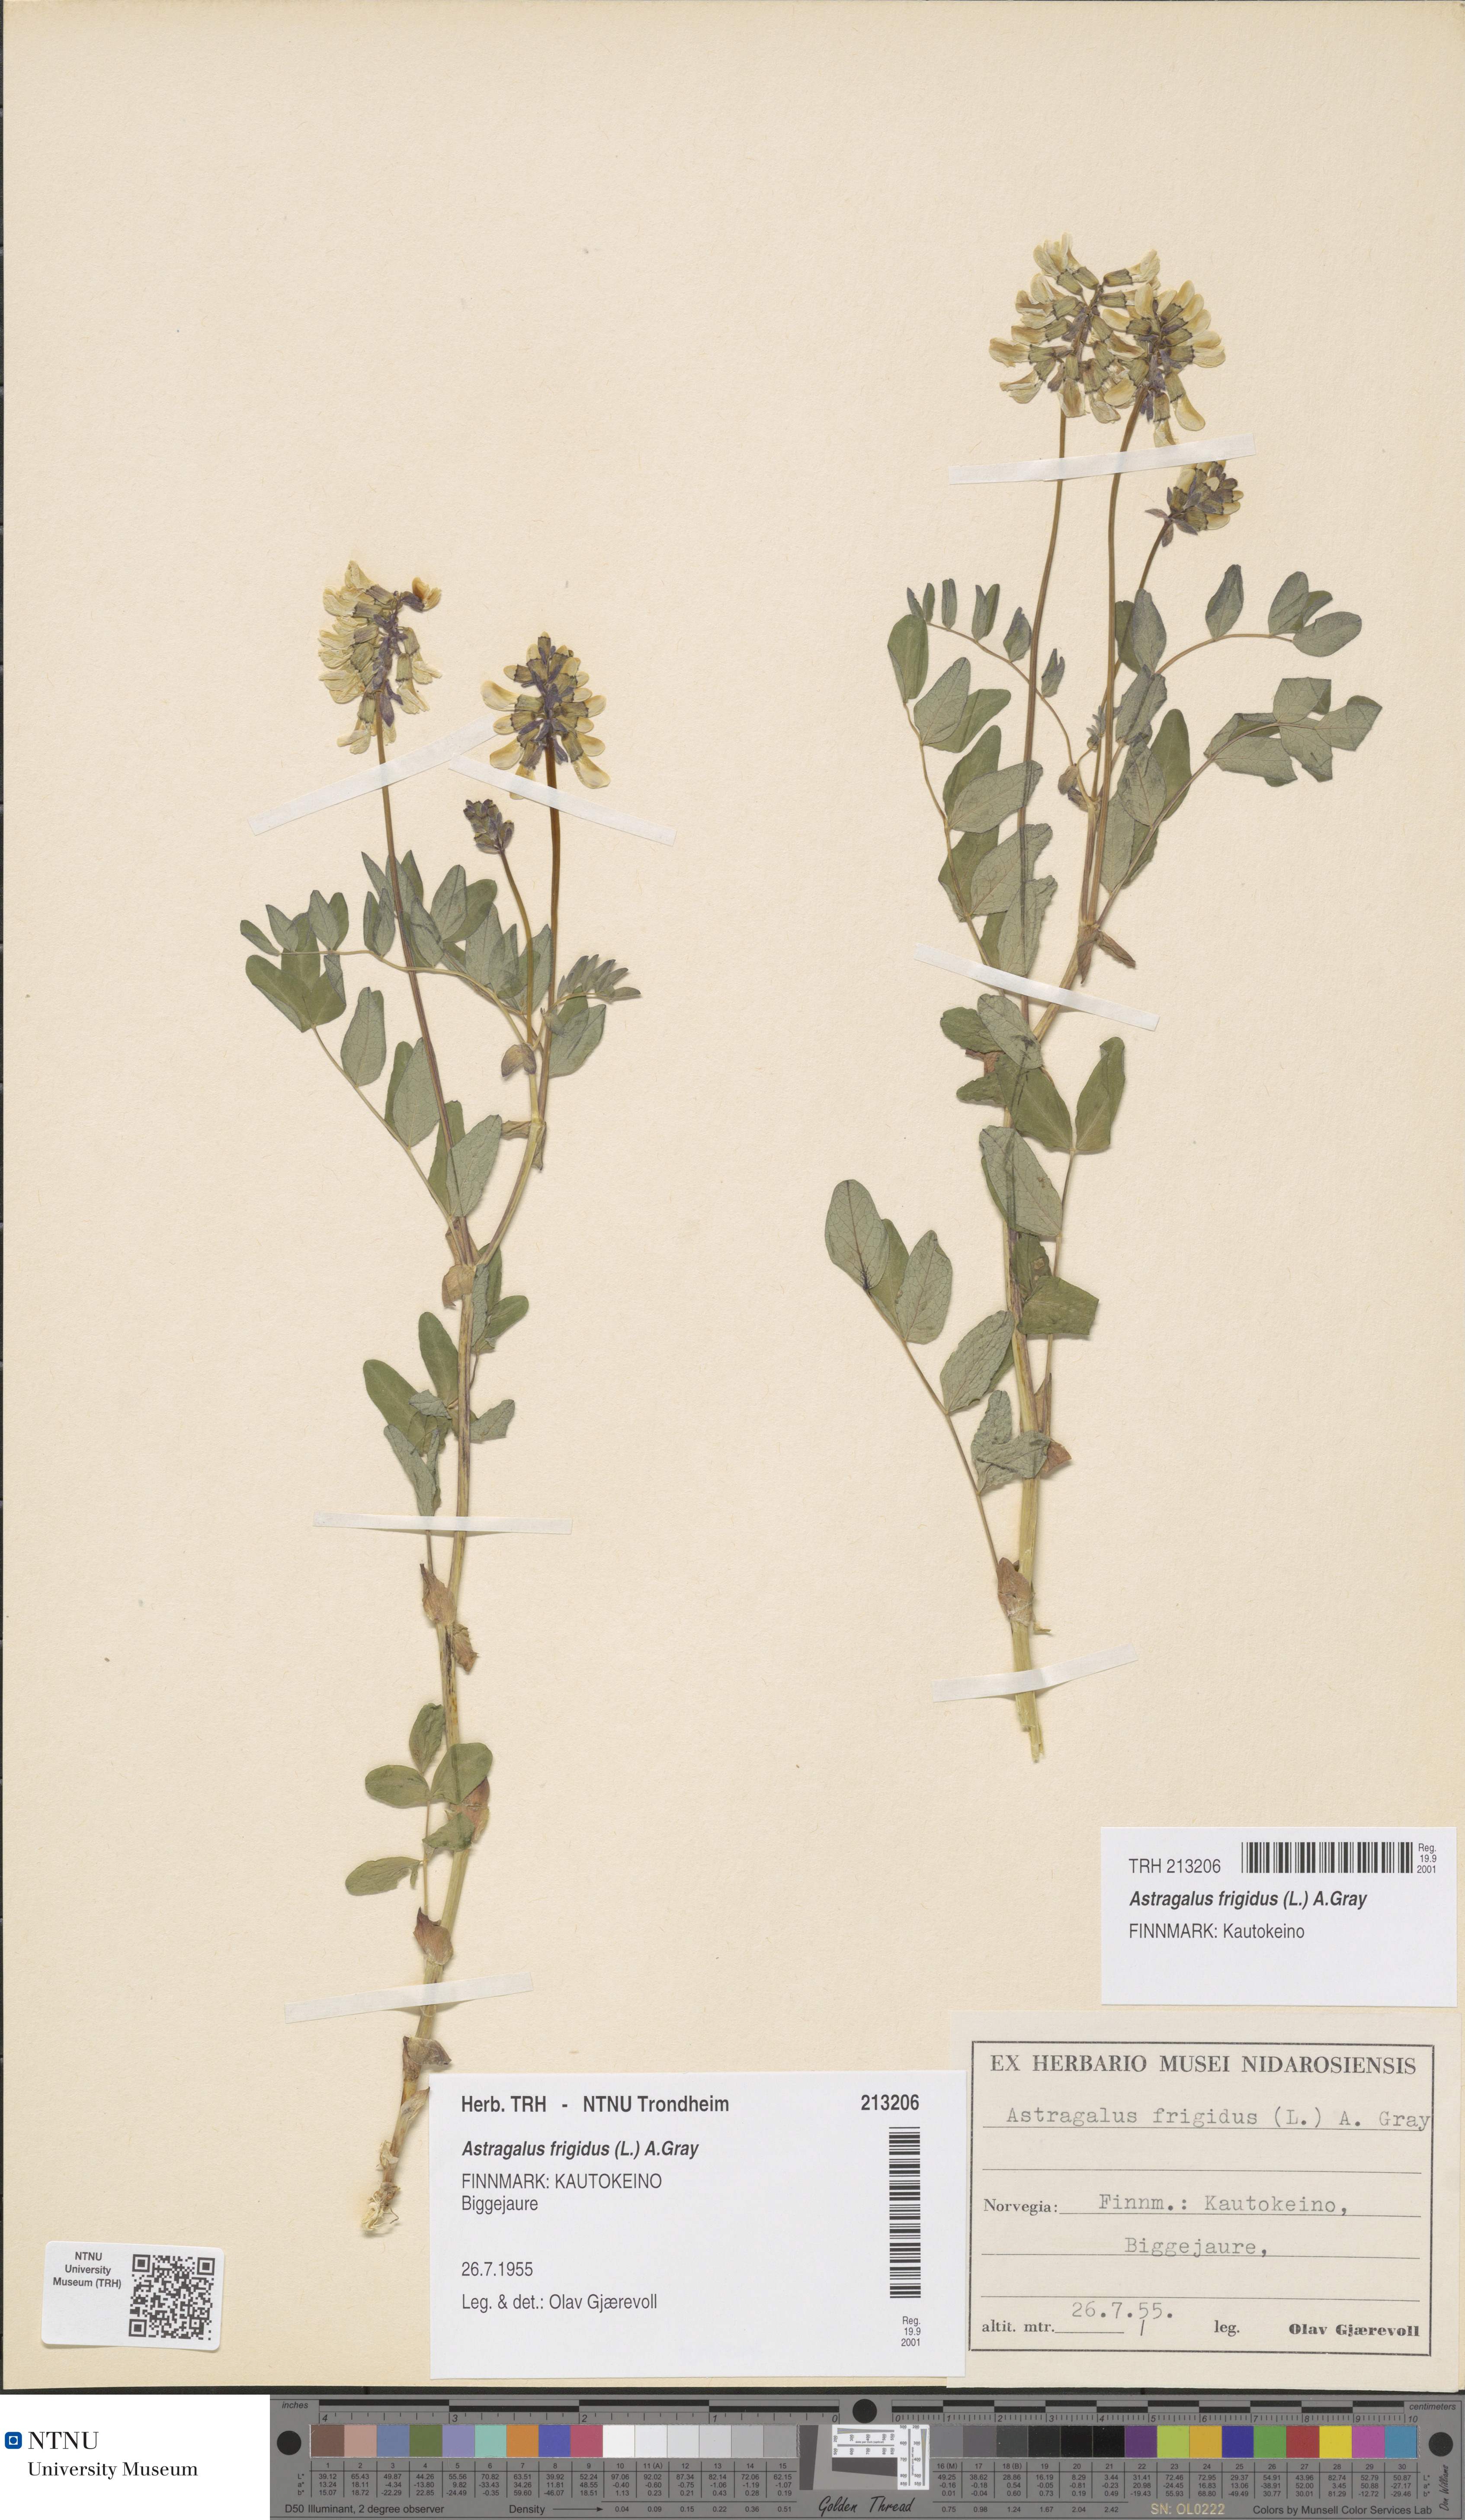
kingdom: Plantae
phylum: Tracheophyta
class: Magnoliopsida
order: Fabales
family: Fabaceae
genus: Astragalus
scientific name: Astragalus frigidus
